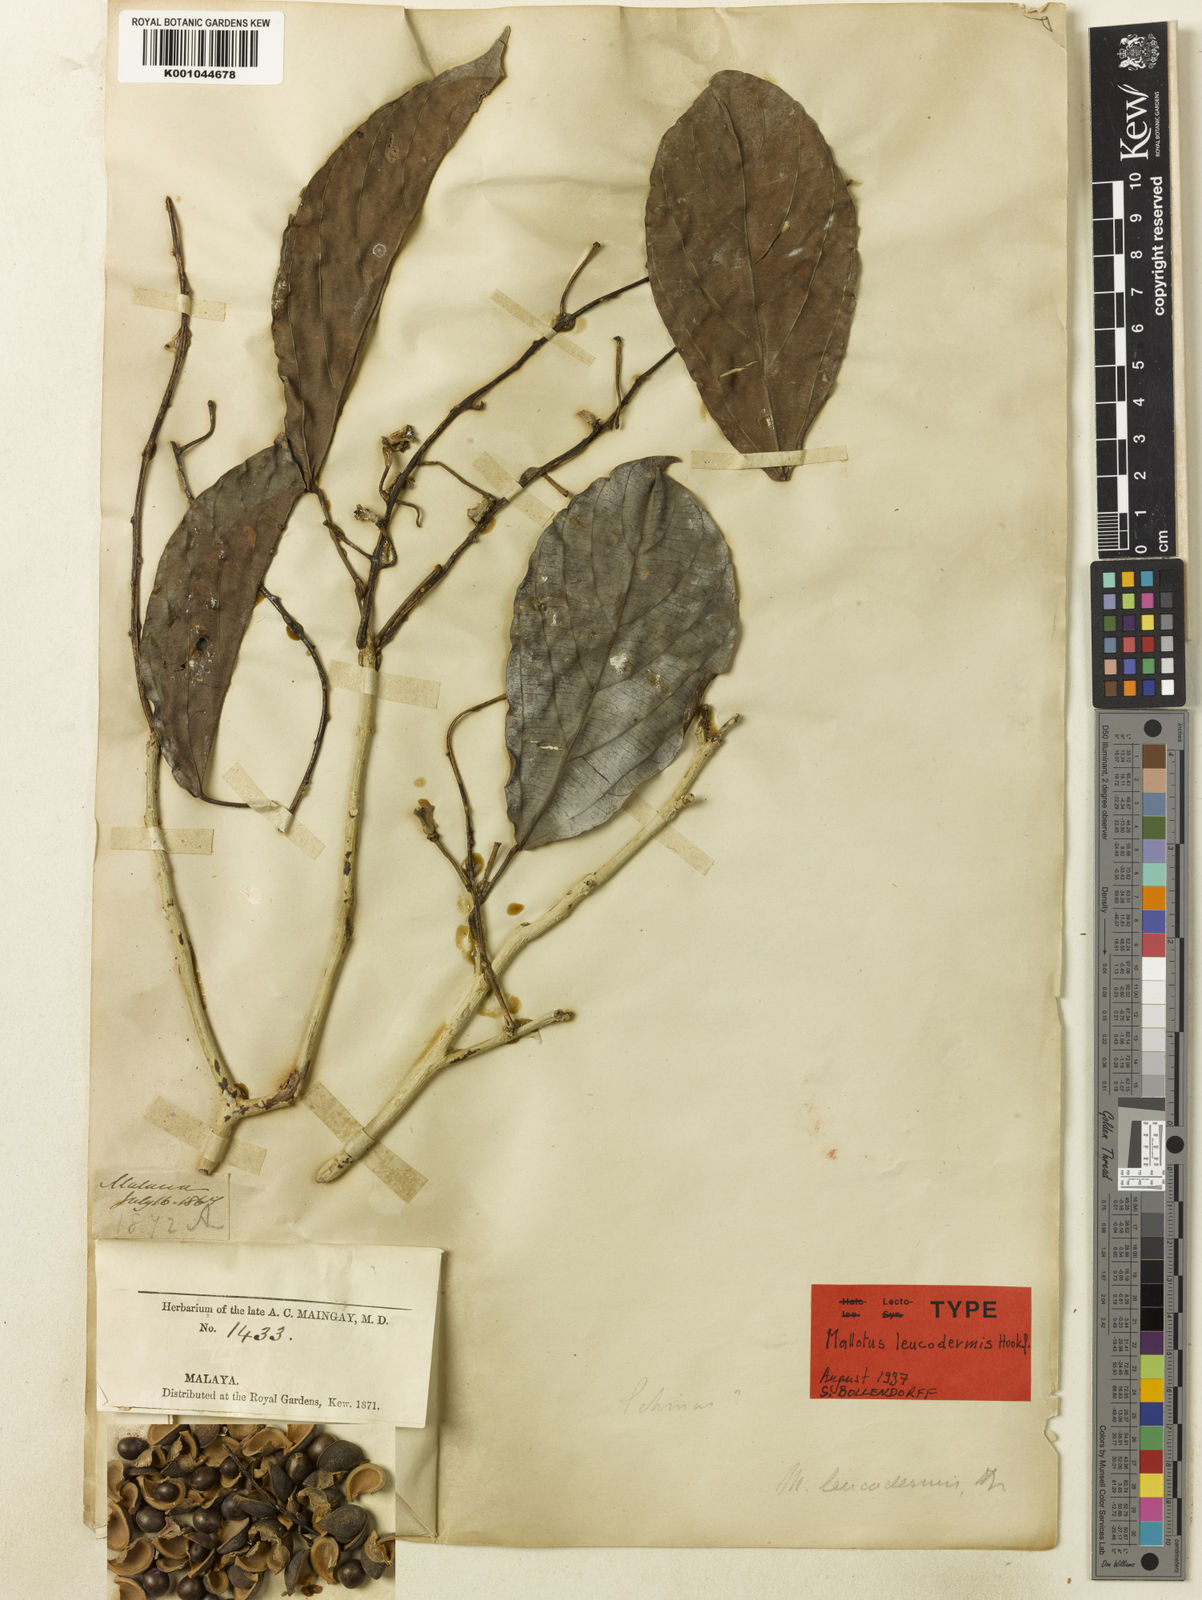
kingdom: Plantae
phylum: Tracheophyta
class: Magnoliopsida
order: Malpighiales
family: Euphorbiaceae
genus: Mallotus
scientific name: Mallotus leucodermis
